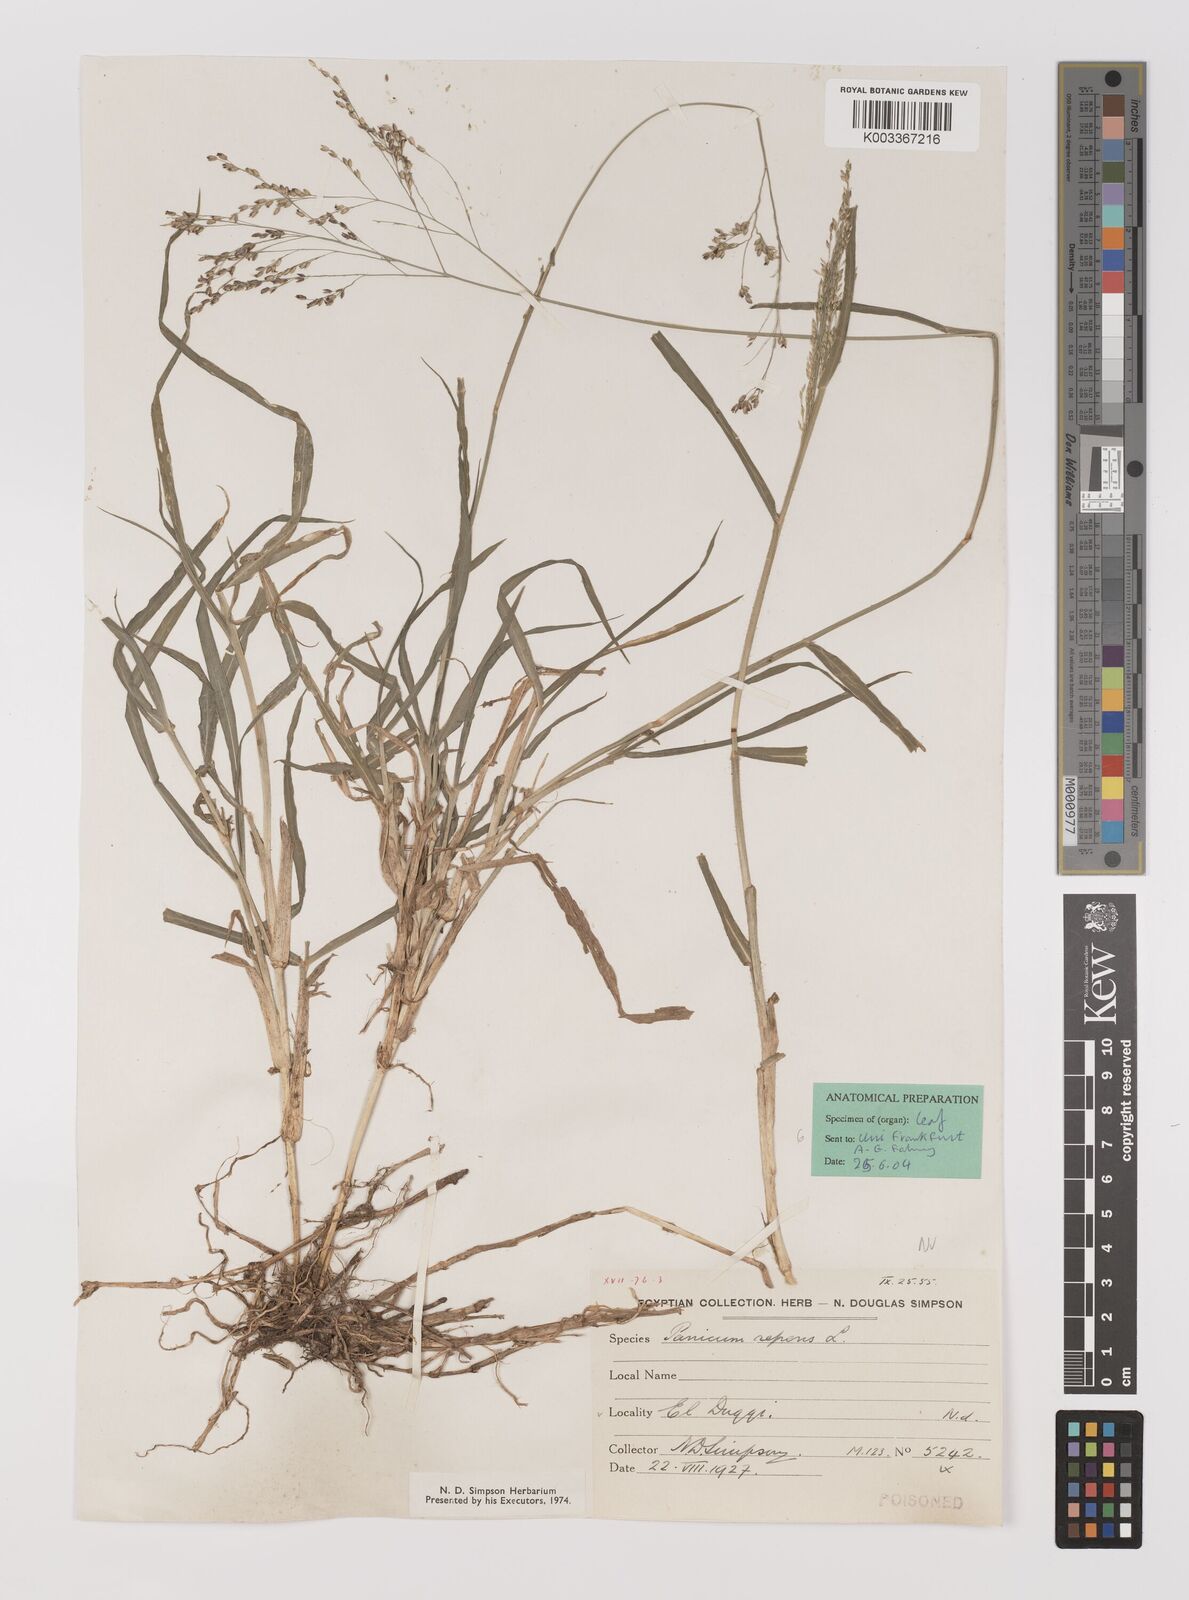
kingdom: Plantae
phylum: Tracheophyta
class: Liliopsida
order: Poales
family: Poaceae
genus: Panicum
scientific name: Panicum repens
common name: Torpedo grass
